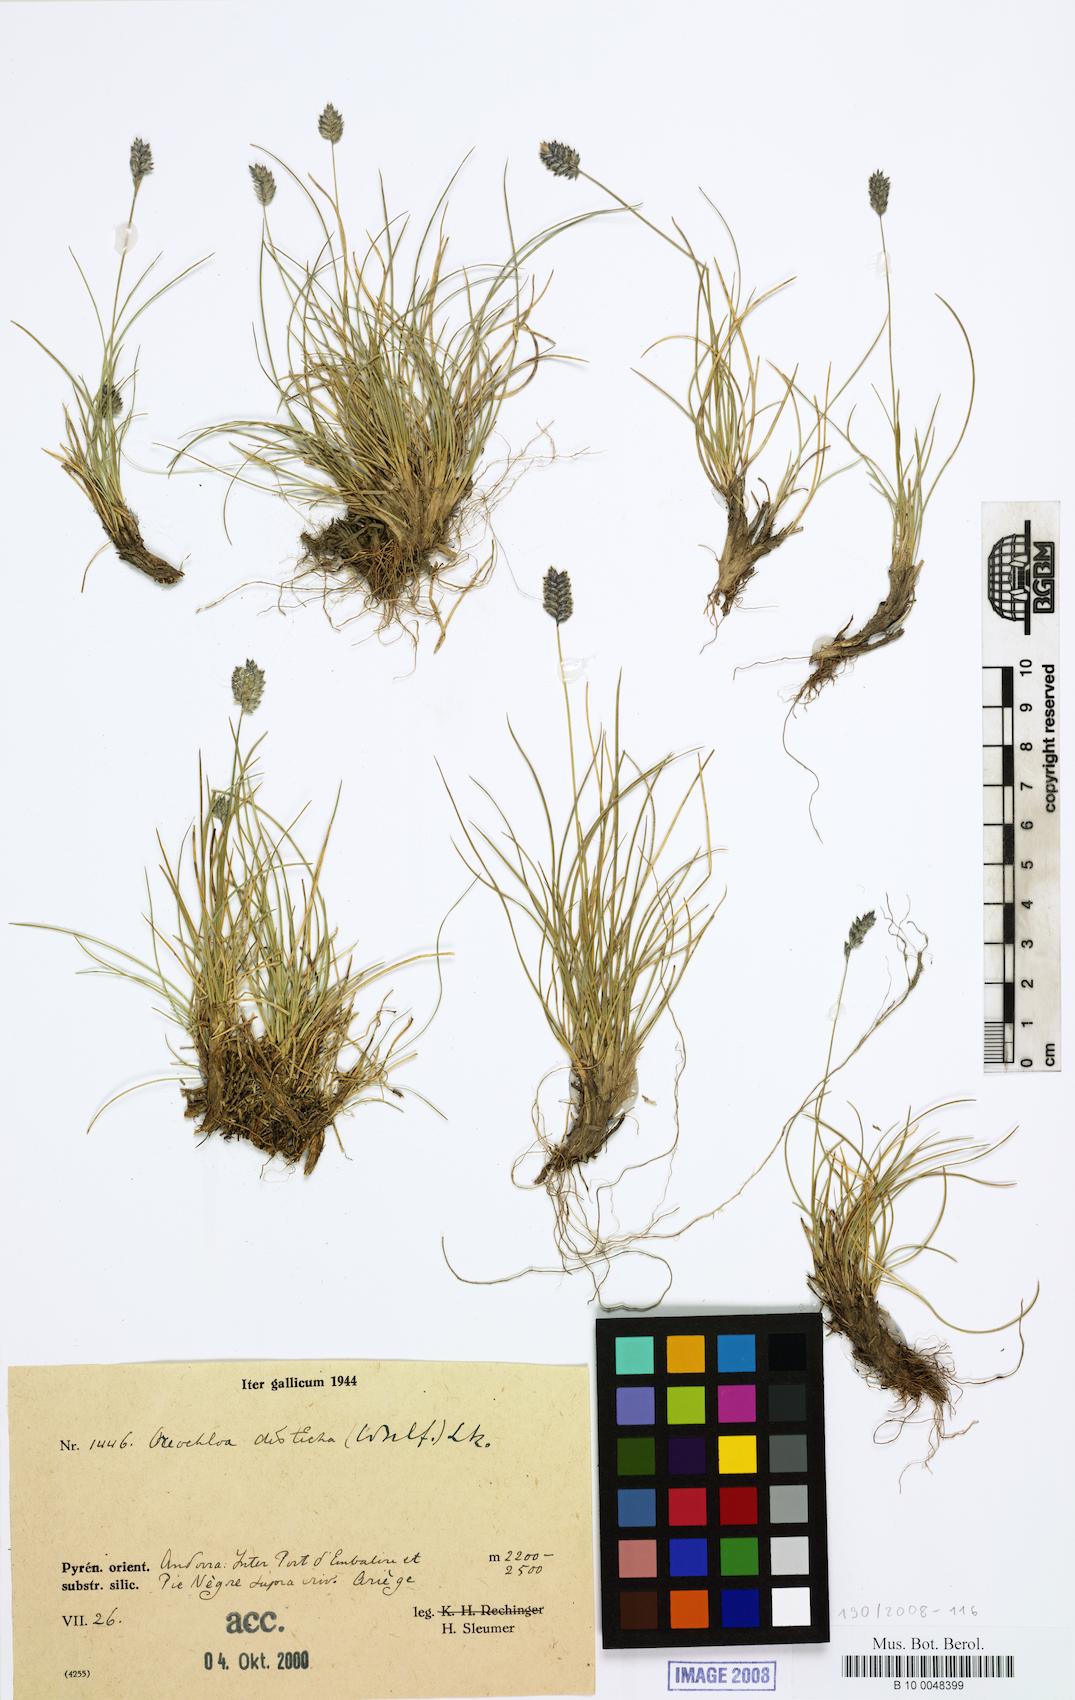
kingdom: Plantae
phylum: Tracheophyta
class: Liliopsida
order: Poales
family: Poaceae
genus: Oreochloa
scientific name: Oreochloa disticha
